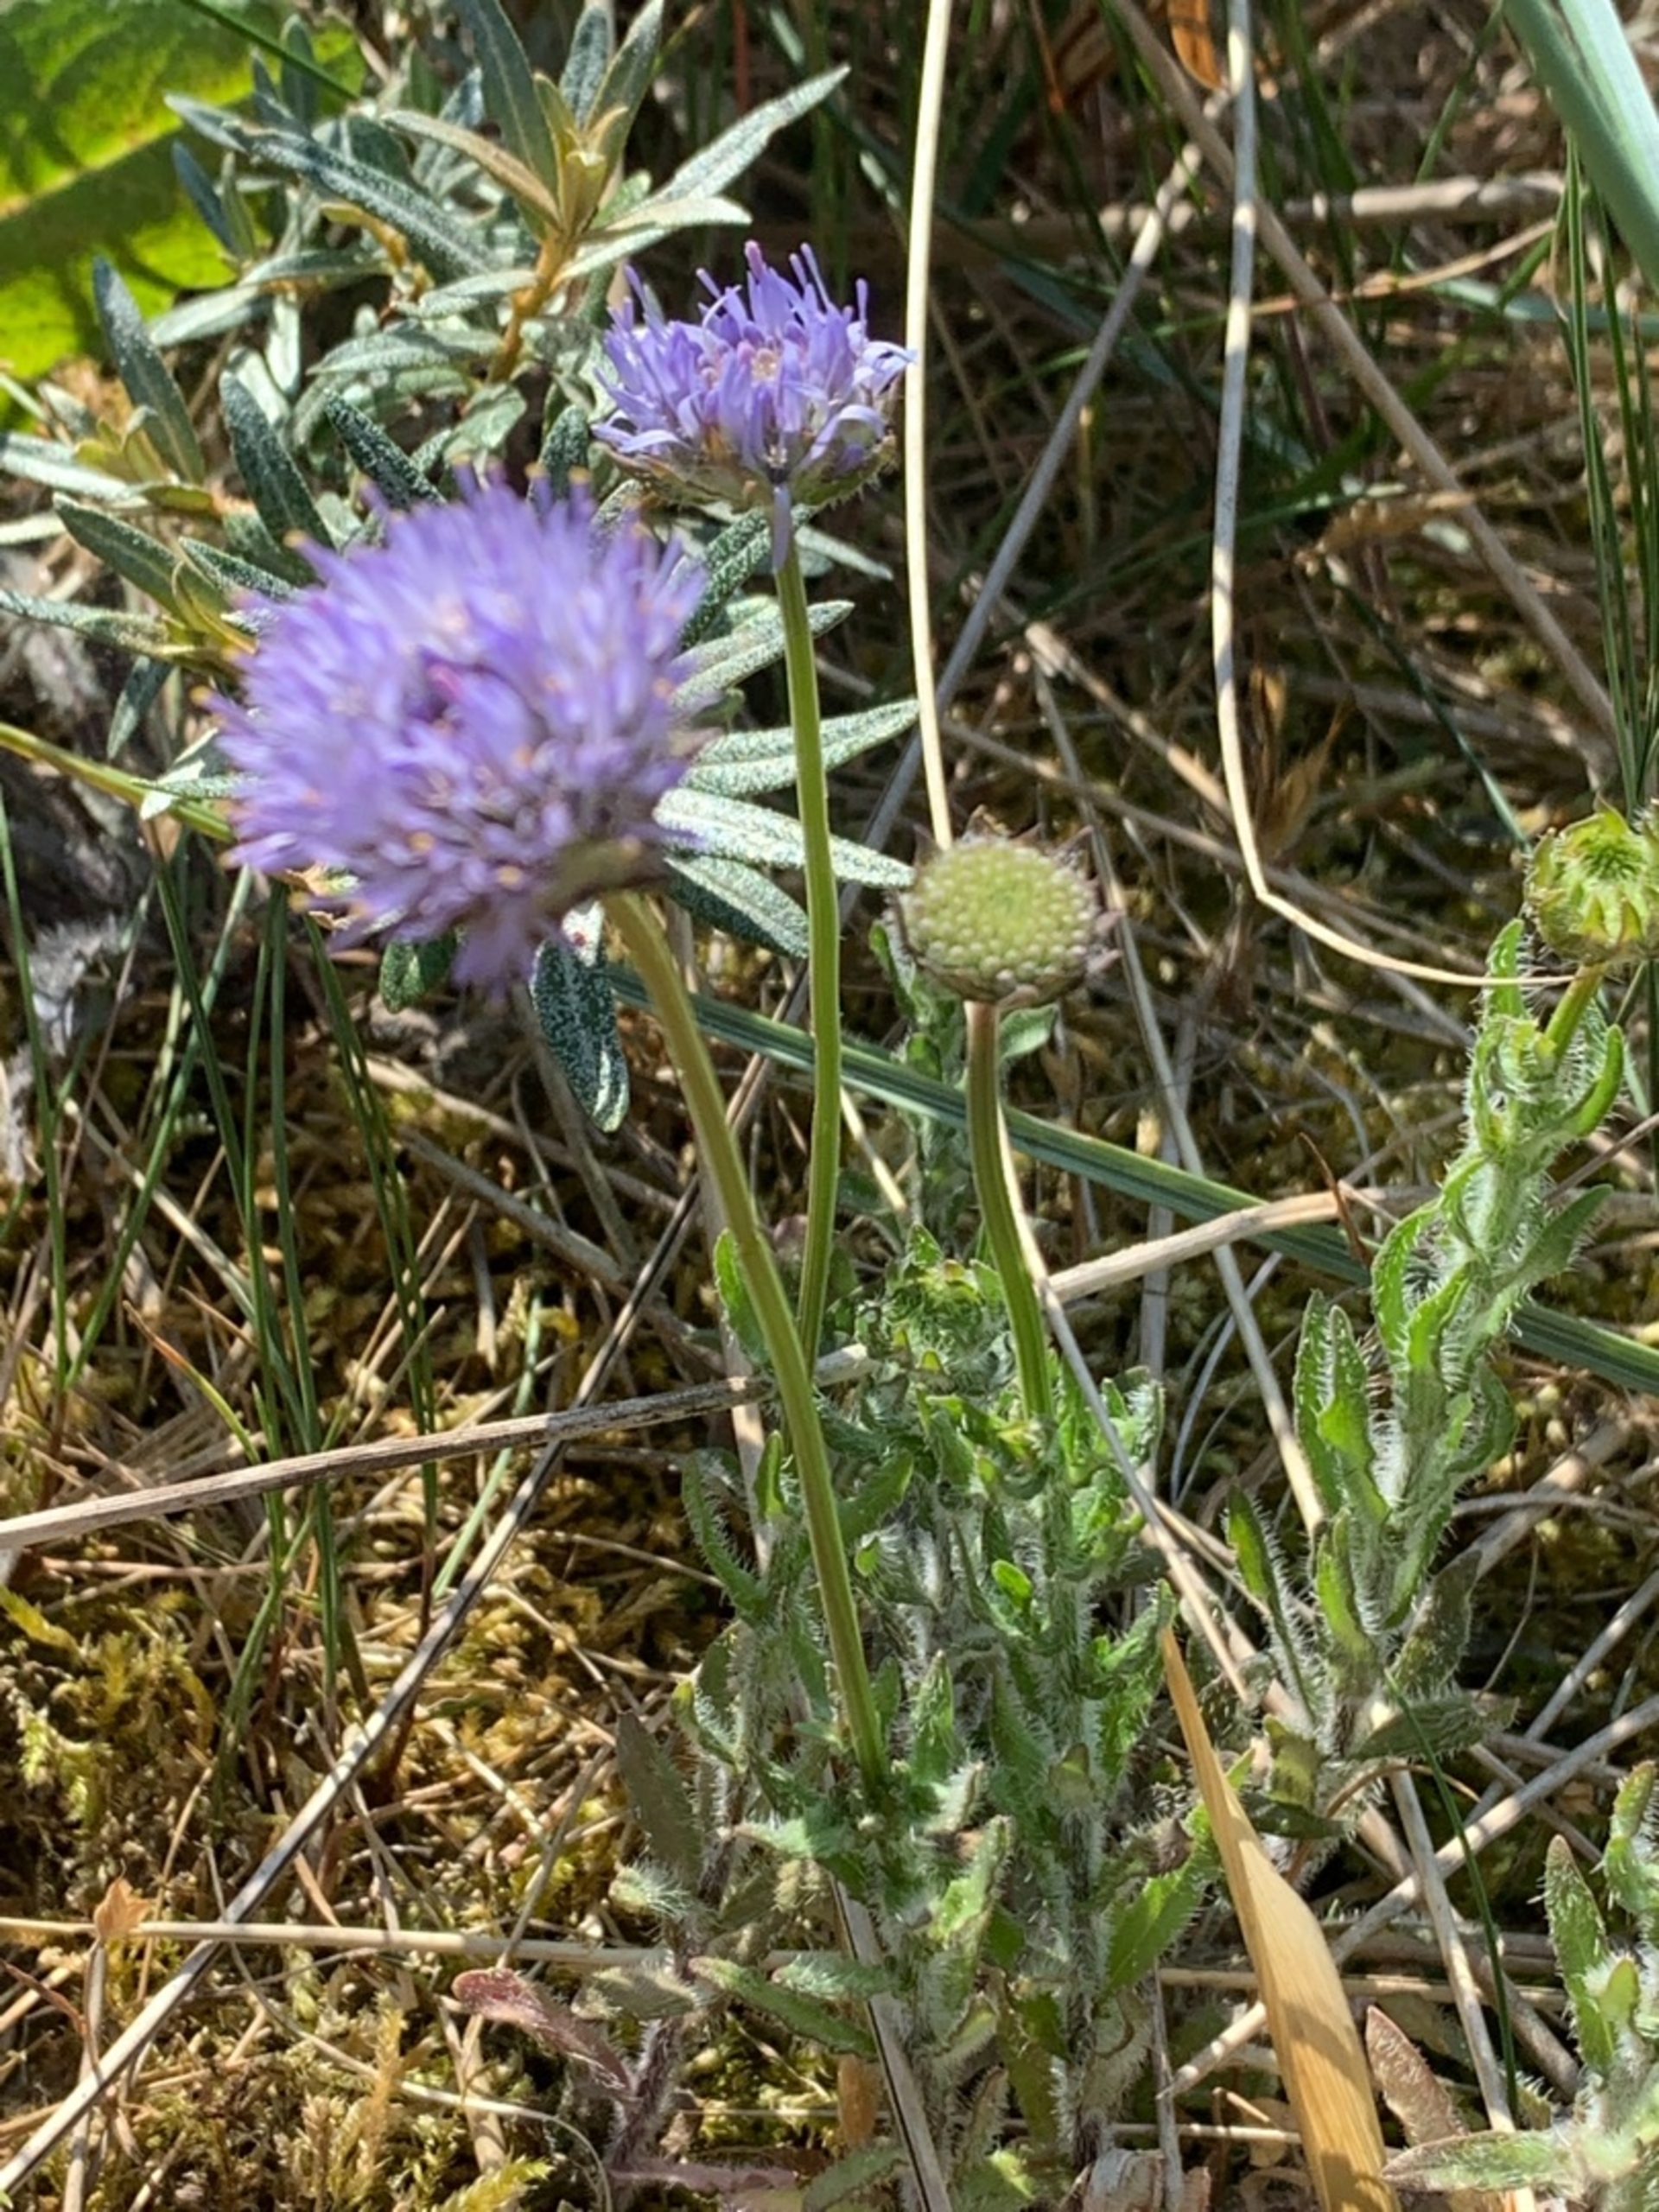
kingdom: Plantae
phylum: Tracheophyta
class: Magnoliopsida
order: Asterales
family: Campanulaceae
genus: Jasione
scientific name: Jasione montana
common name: Blåmunke
